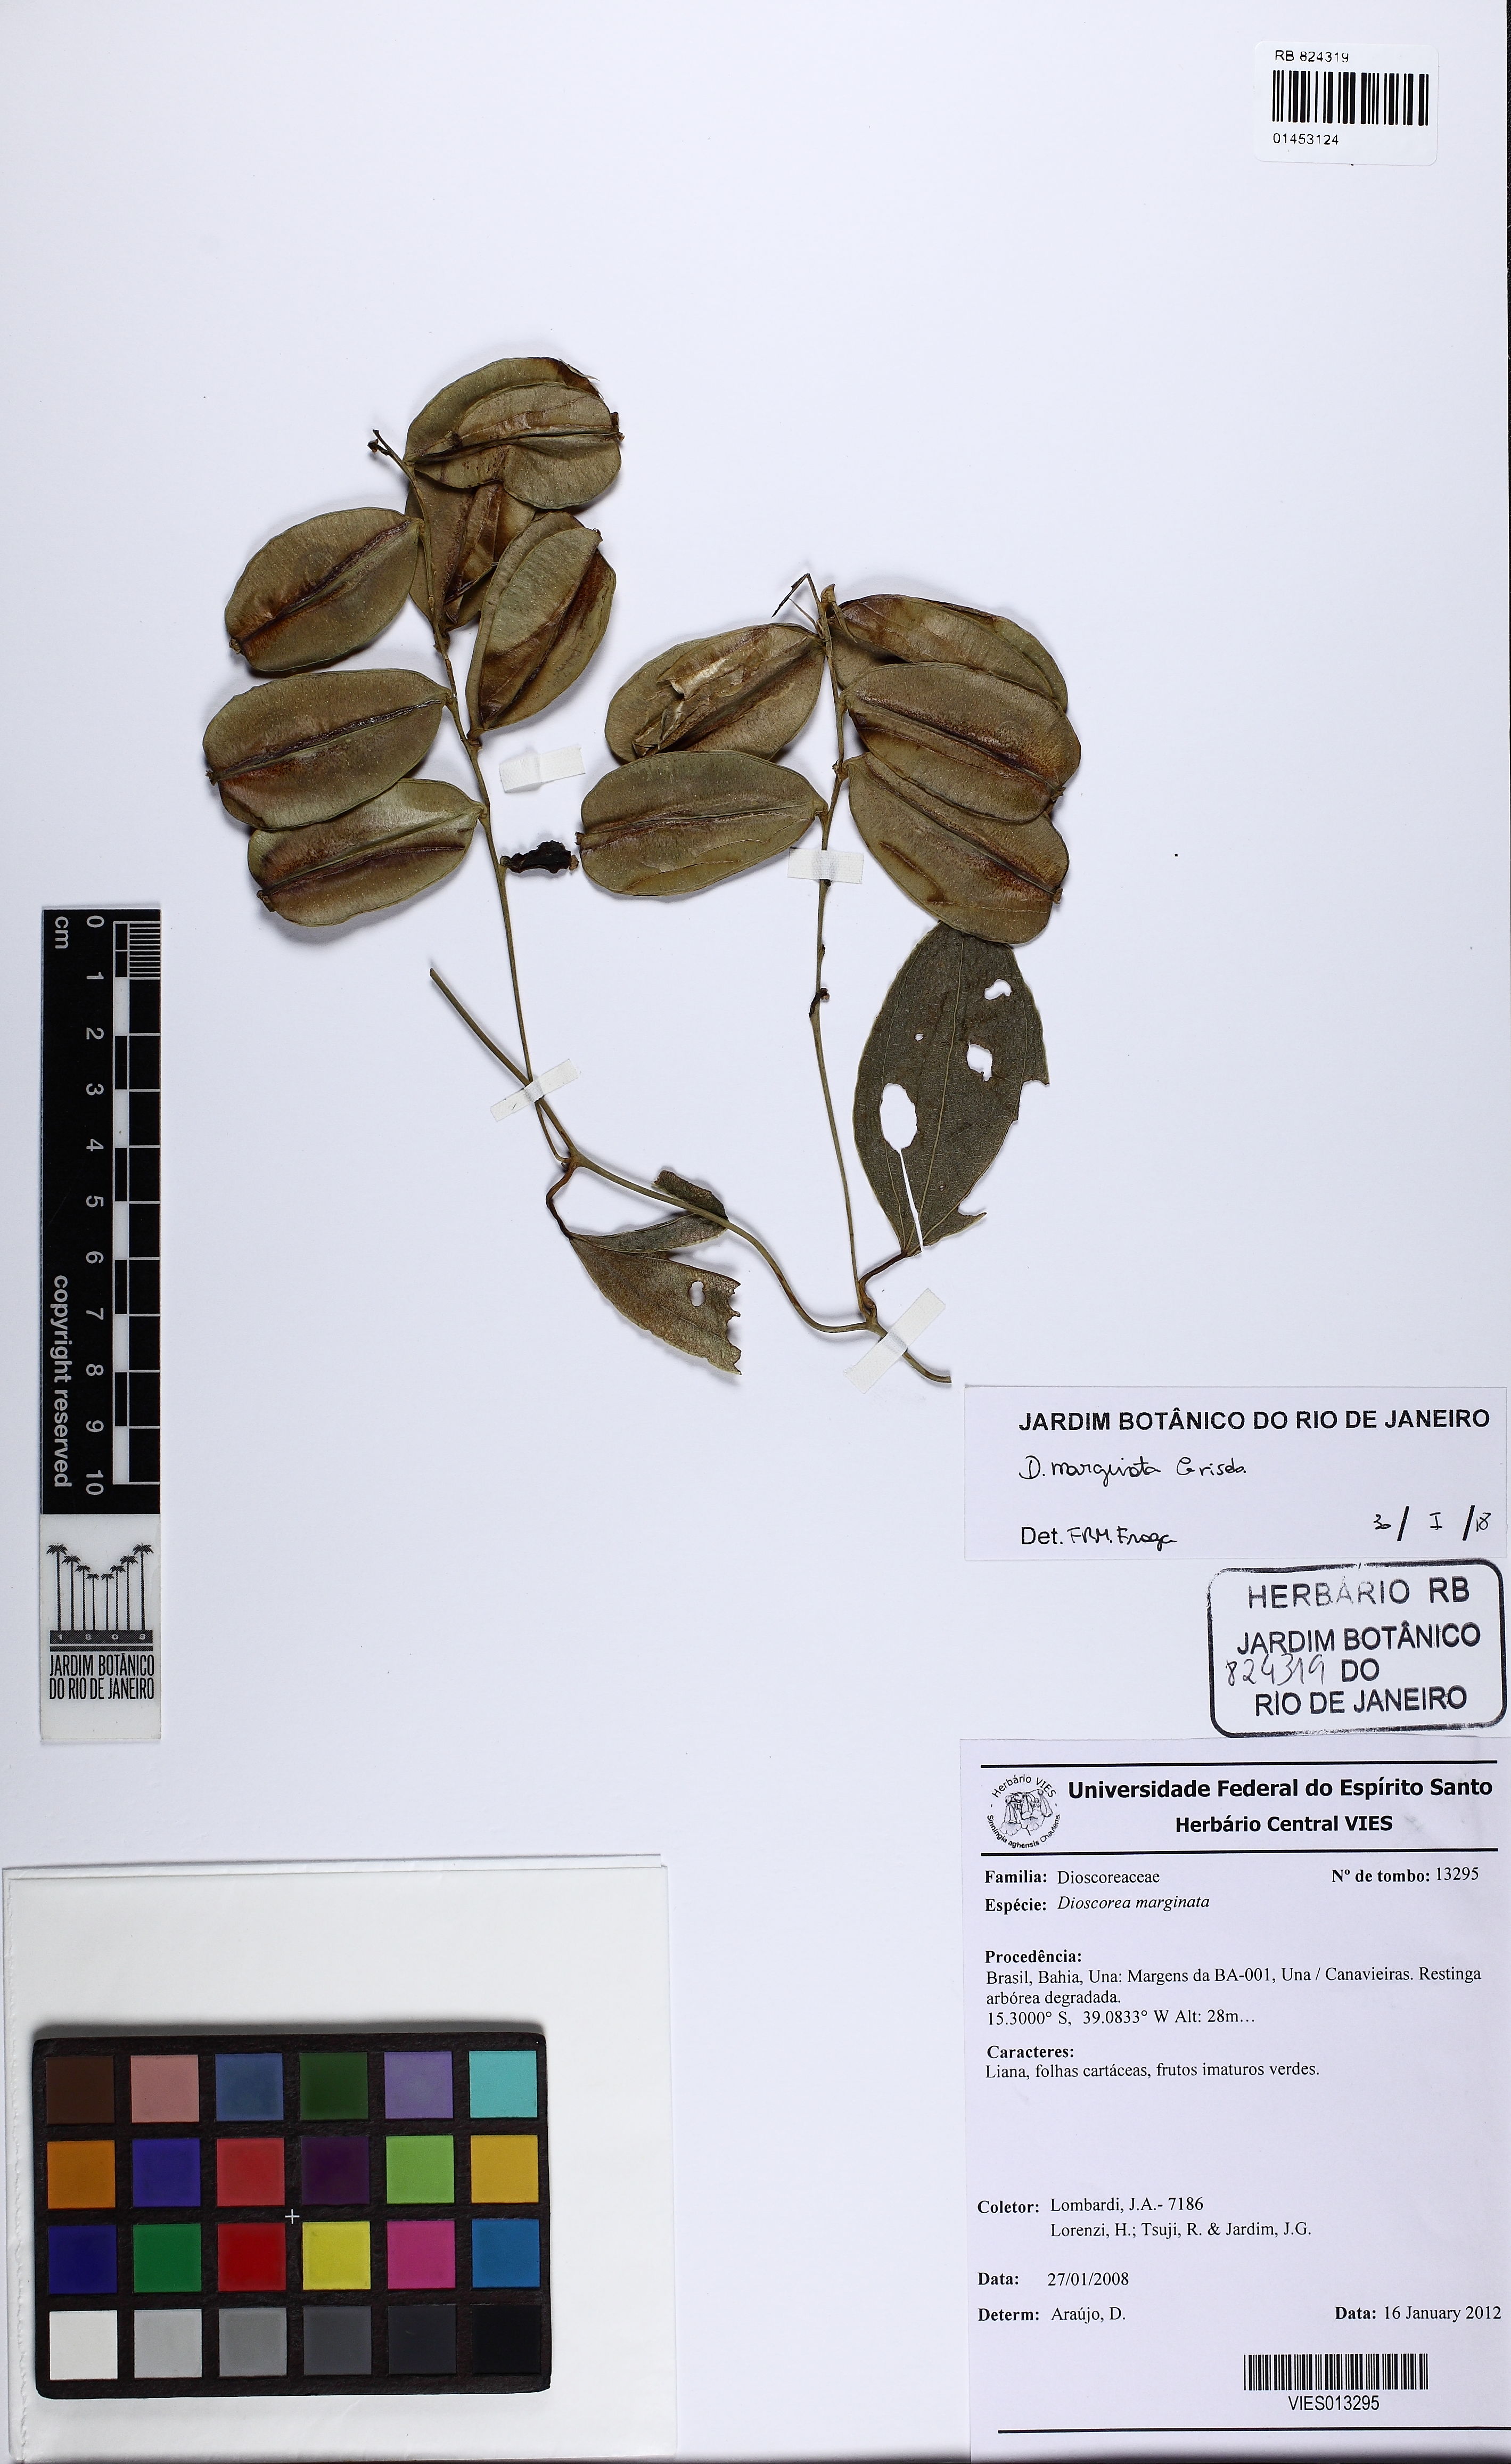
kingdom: Plantae
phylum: Tracheophyta
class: Liliopsida
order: Dioscoreales
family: Dioscoreaceae
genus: Dioscorea
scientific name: Dioscorea marginata
